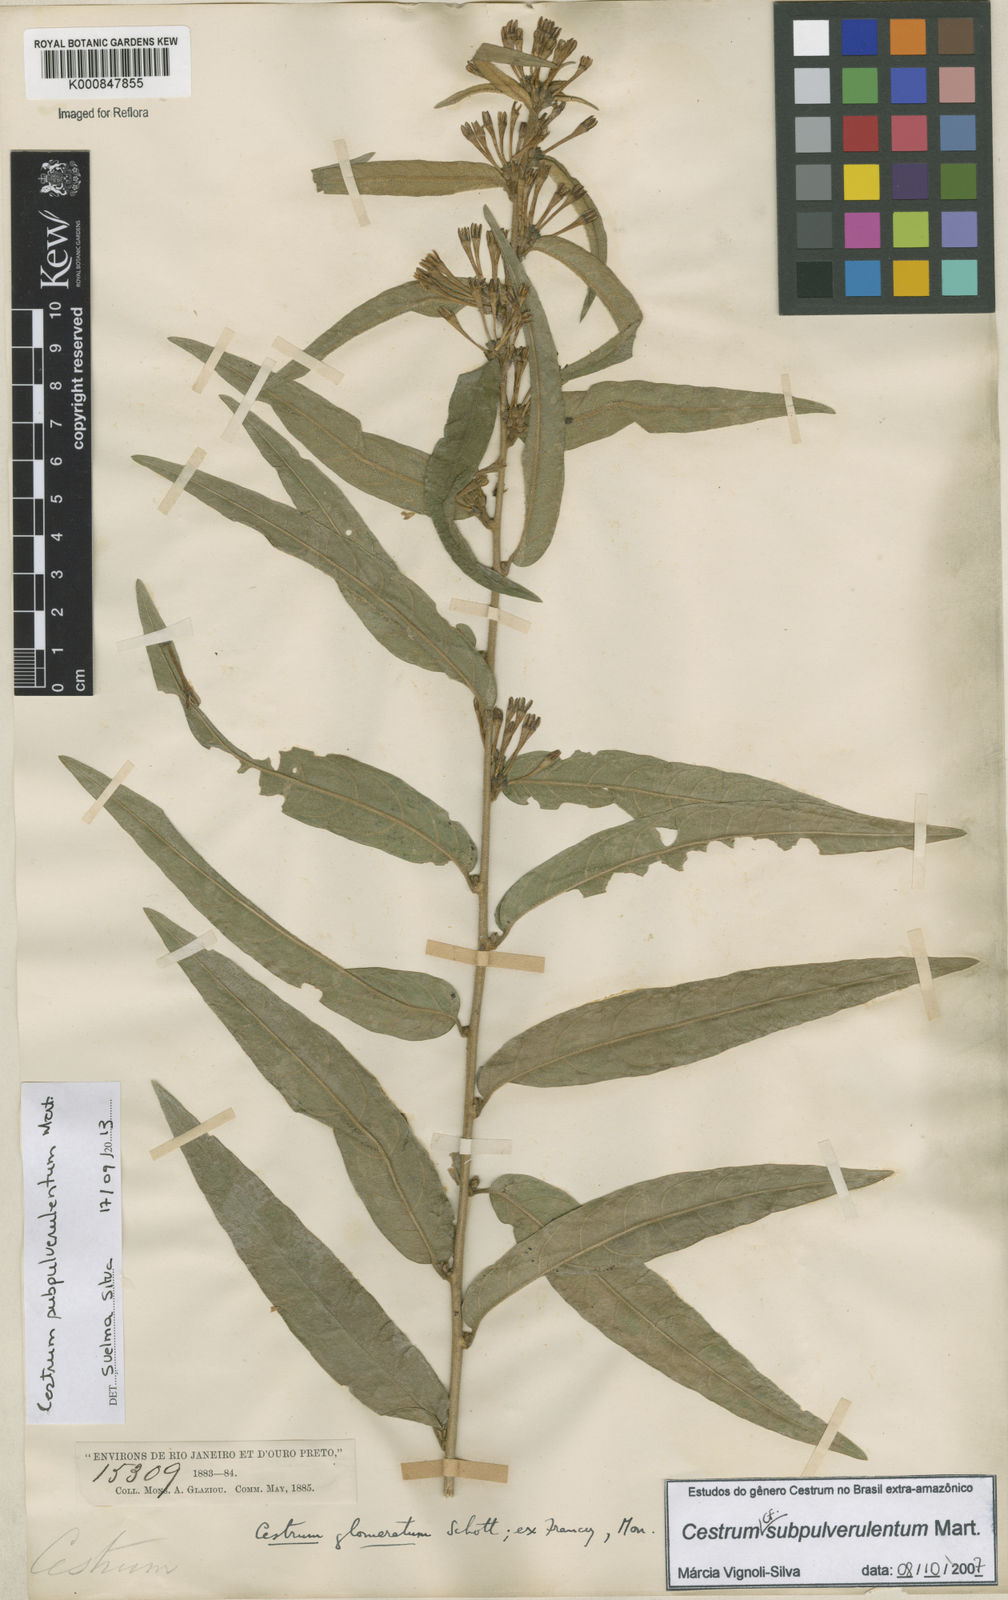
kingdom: Plantae
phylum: Tracheophyta
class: Magnoliopsida
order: Solanales
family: Solanaceae
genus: Cestrum
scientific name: Cestrum subpulverulentum
